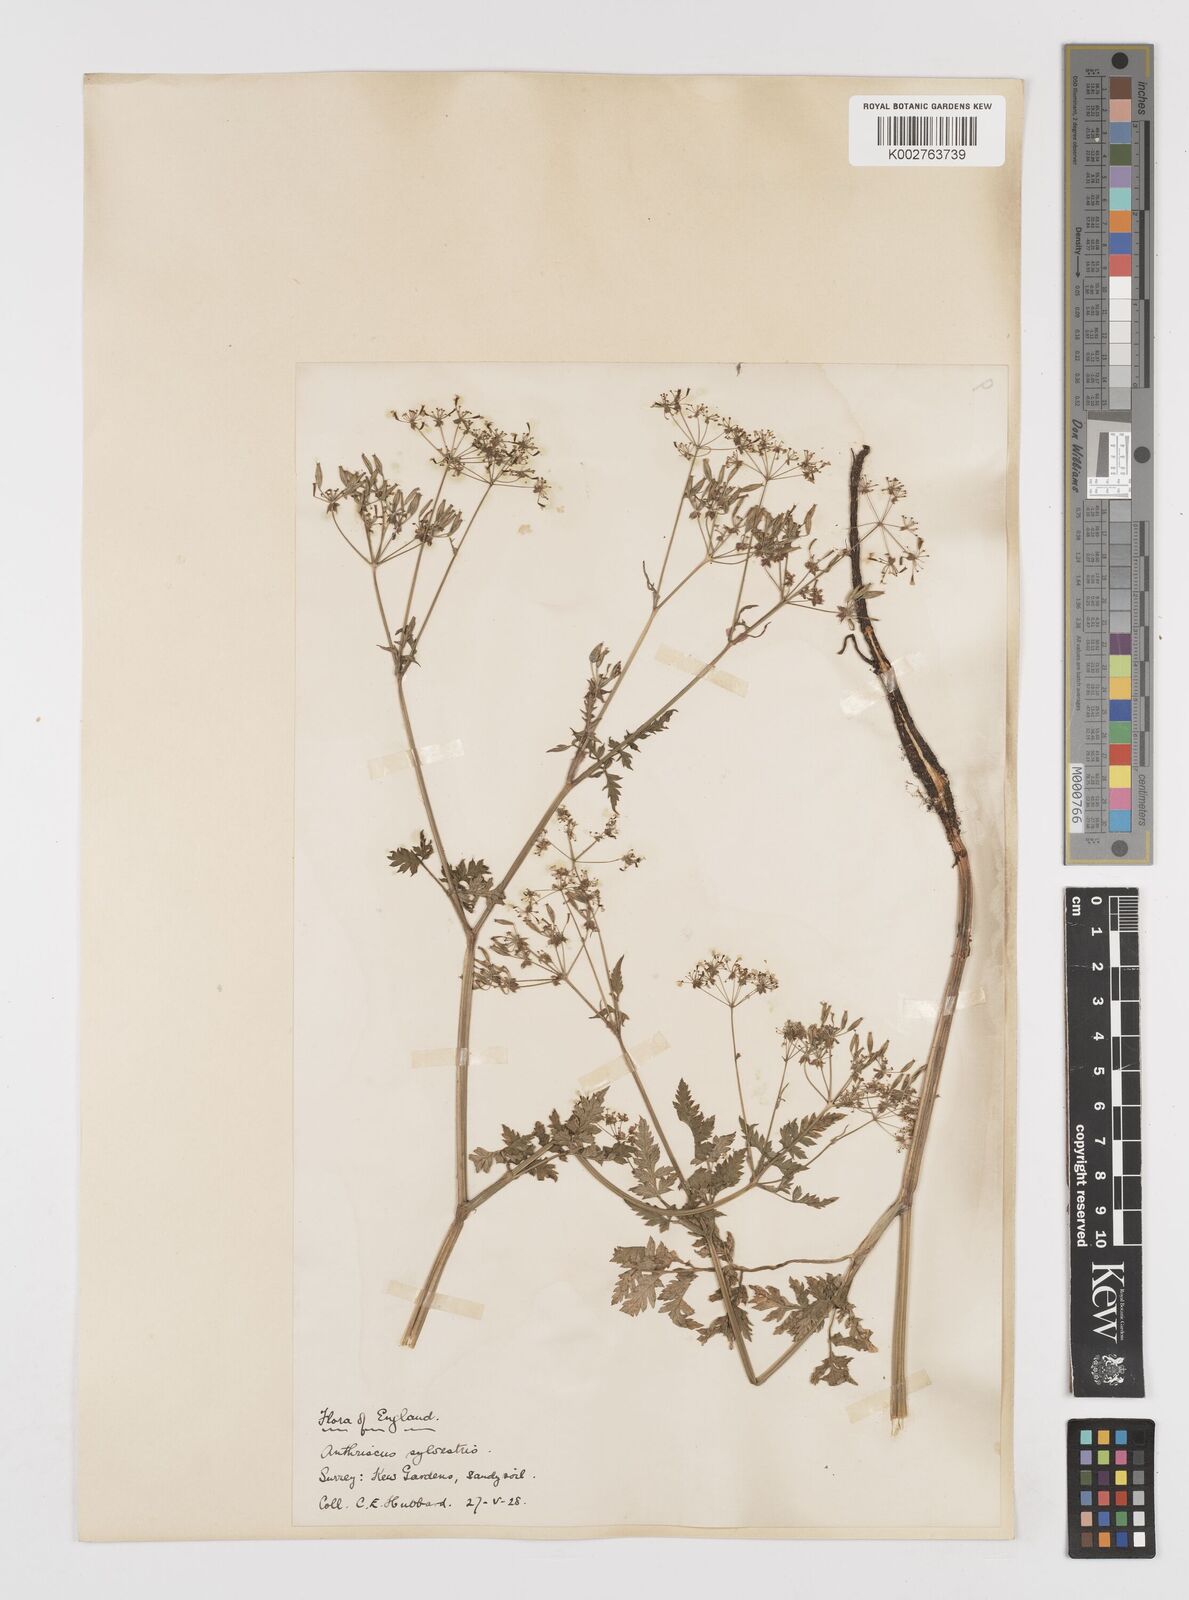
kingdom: Plantae
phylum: Tracheophyta
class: Magnoliopsida
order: Apiales
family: Apiaceae
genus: Anthriscus
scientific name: Anthriscus sylvestris
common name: Cow parsley
